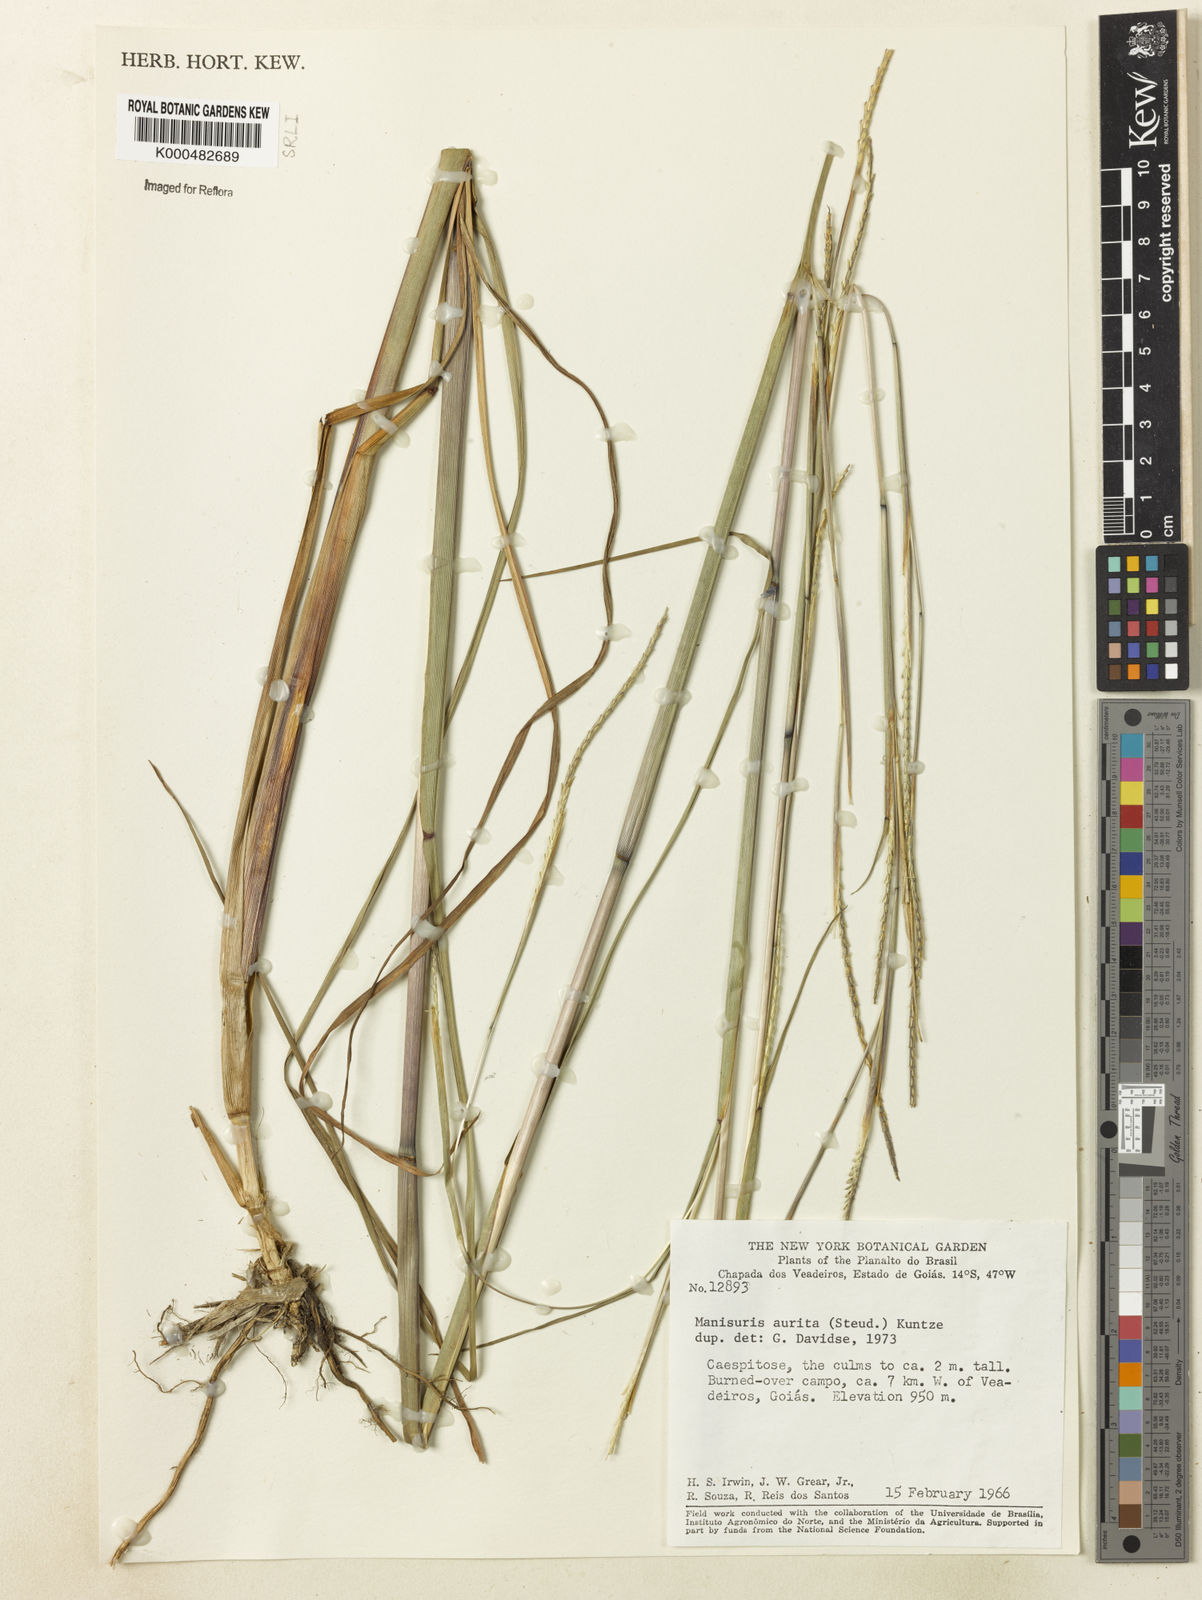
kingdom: Plantae
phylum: Tracheophyta
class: Liliopsida
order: Poales
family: Poaceae
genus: Rottboellia
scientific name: Rottboellia aurita
